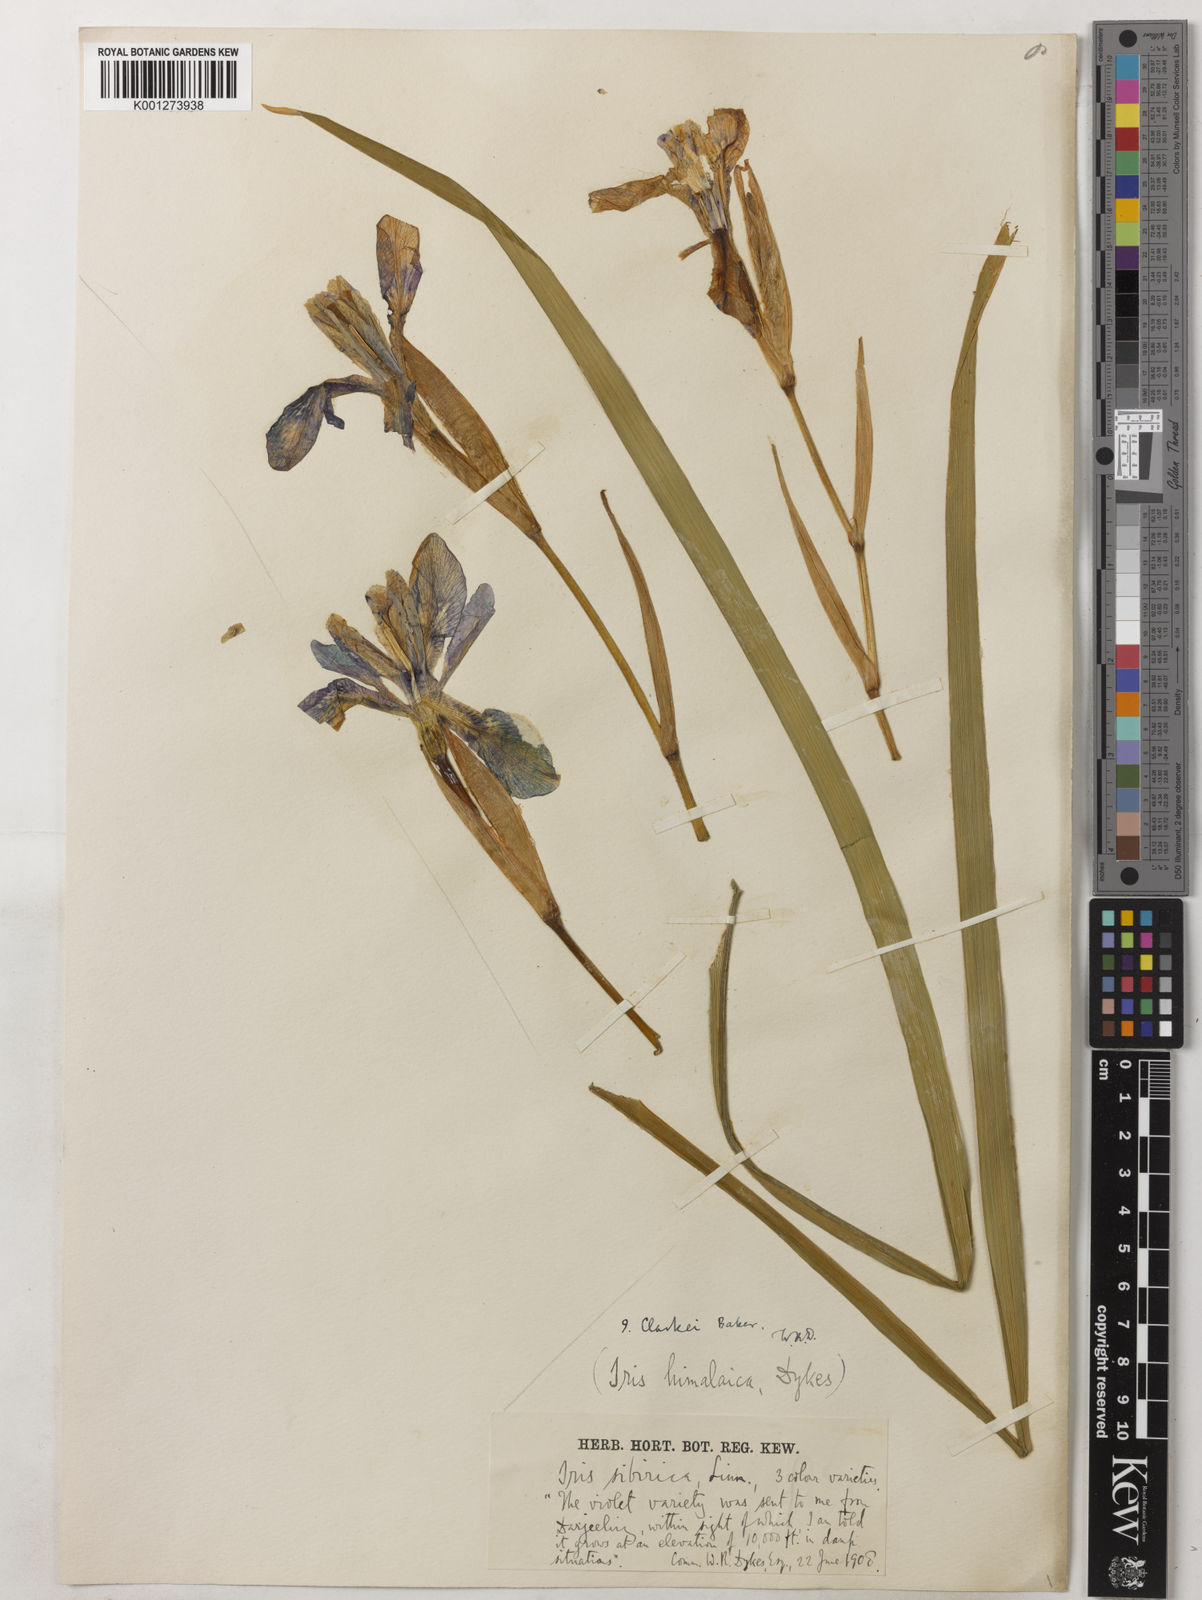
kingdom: Plantae
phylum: Tracheophyta
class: Liliopsida
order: Asparagales
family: Iridaceae
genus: Iris
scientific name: Iris clarkei
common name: Tibet iris
